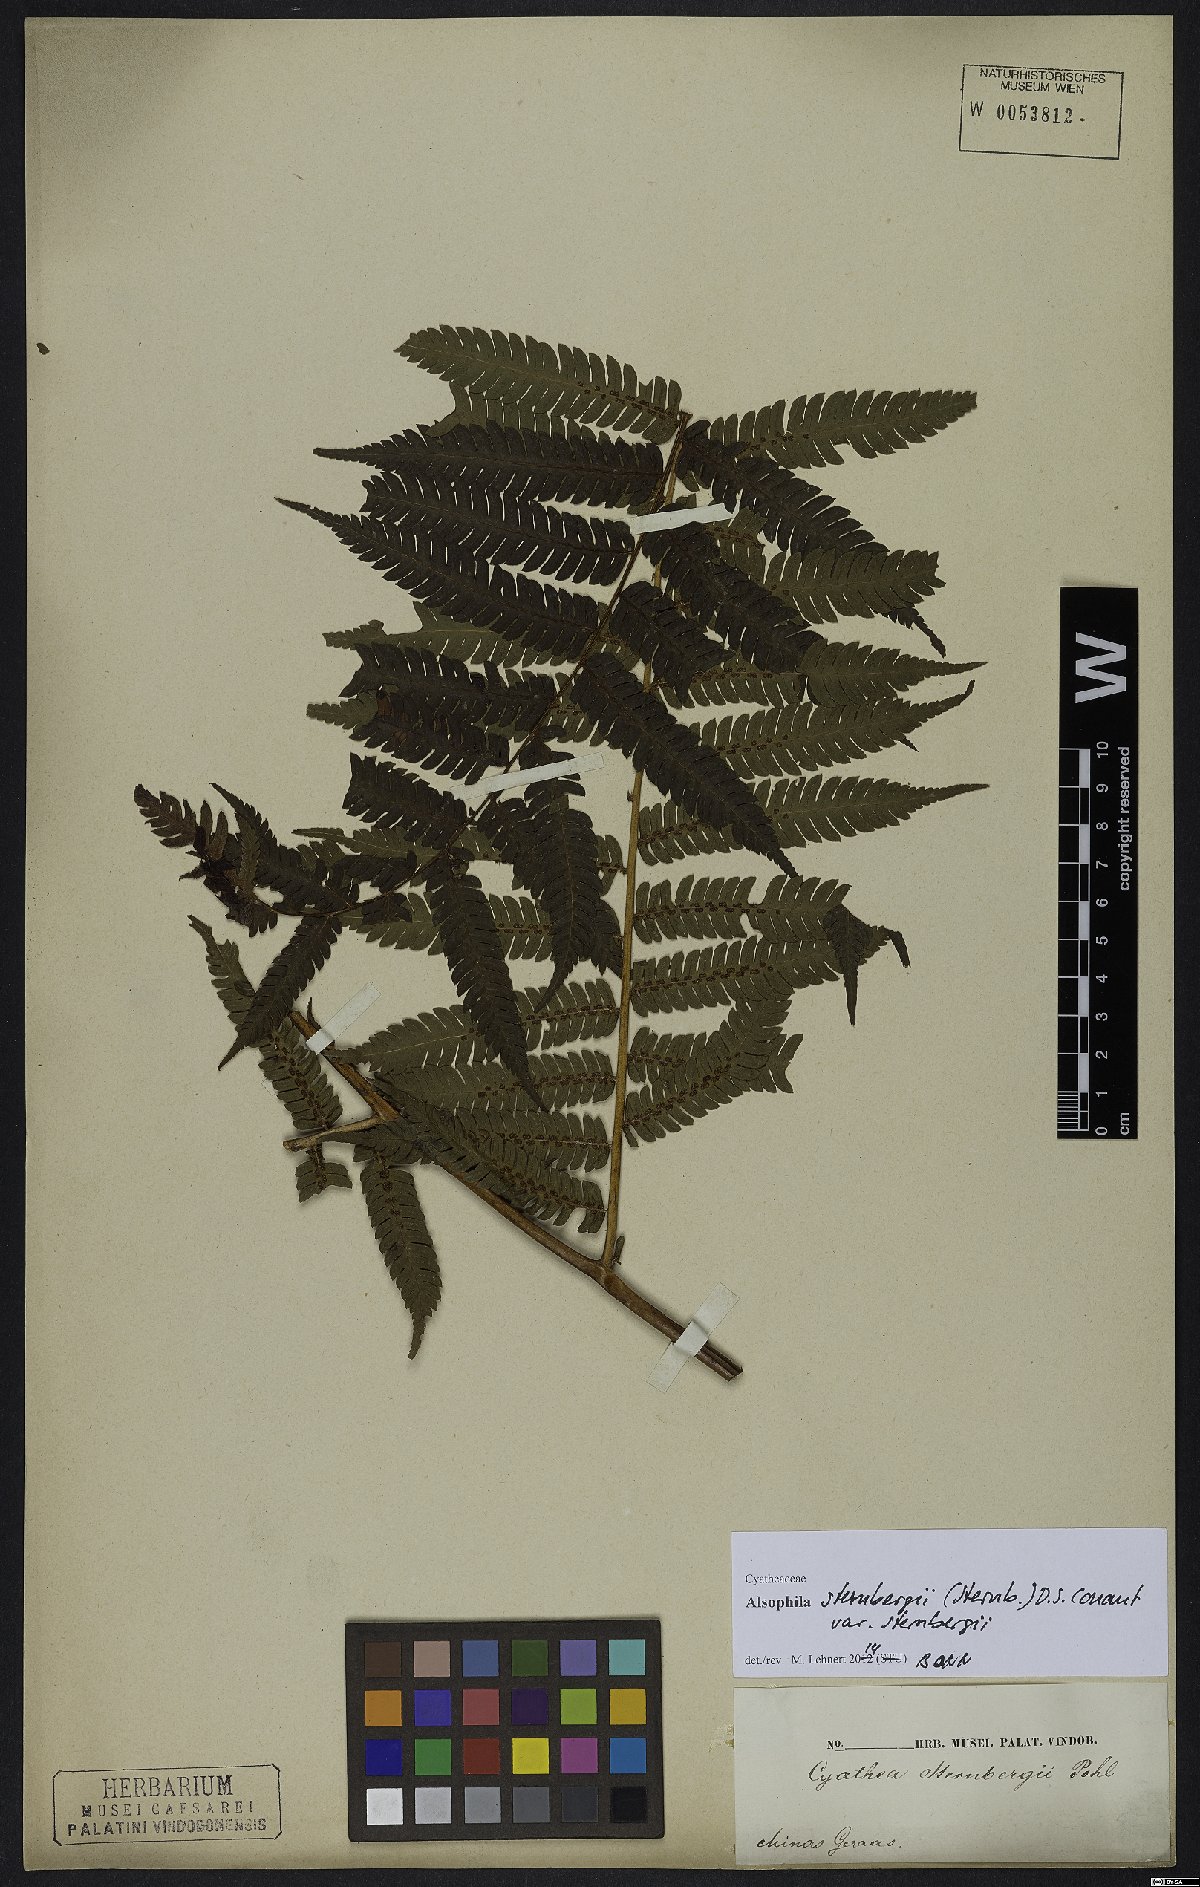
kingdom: Plantae
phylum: Tracheophyta
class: Polypodiopsida
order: Cyatheales
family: Cyatheaceae
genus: Alsophila
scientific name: Alsophila sternbergii
